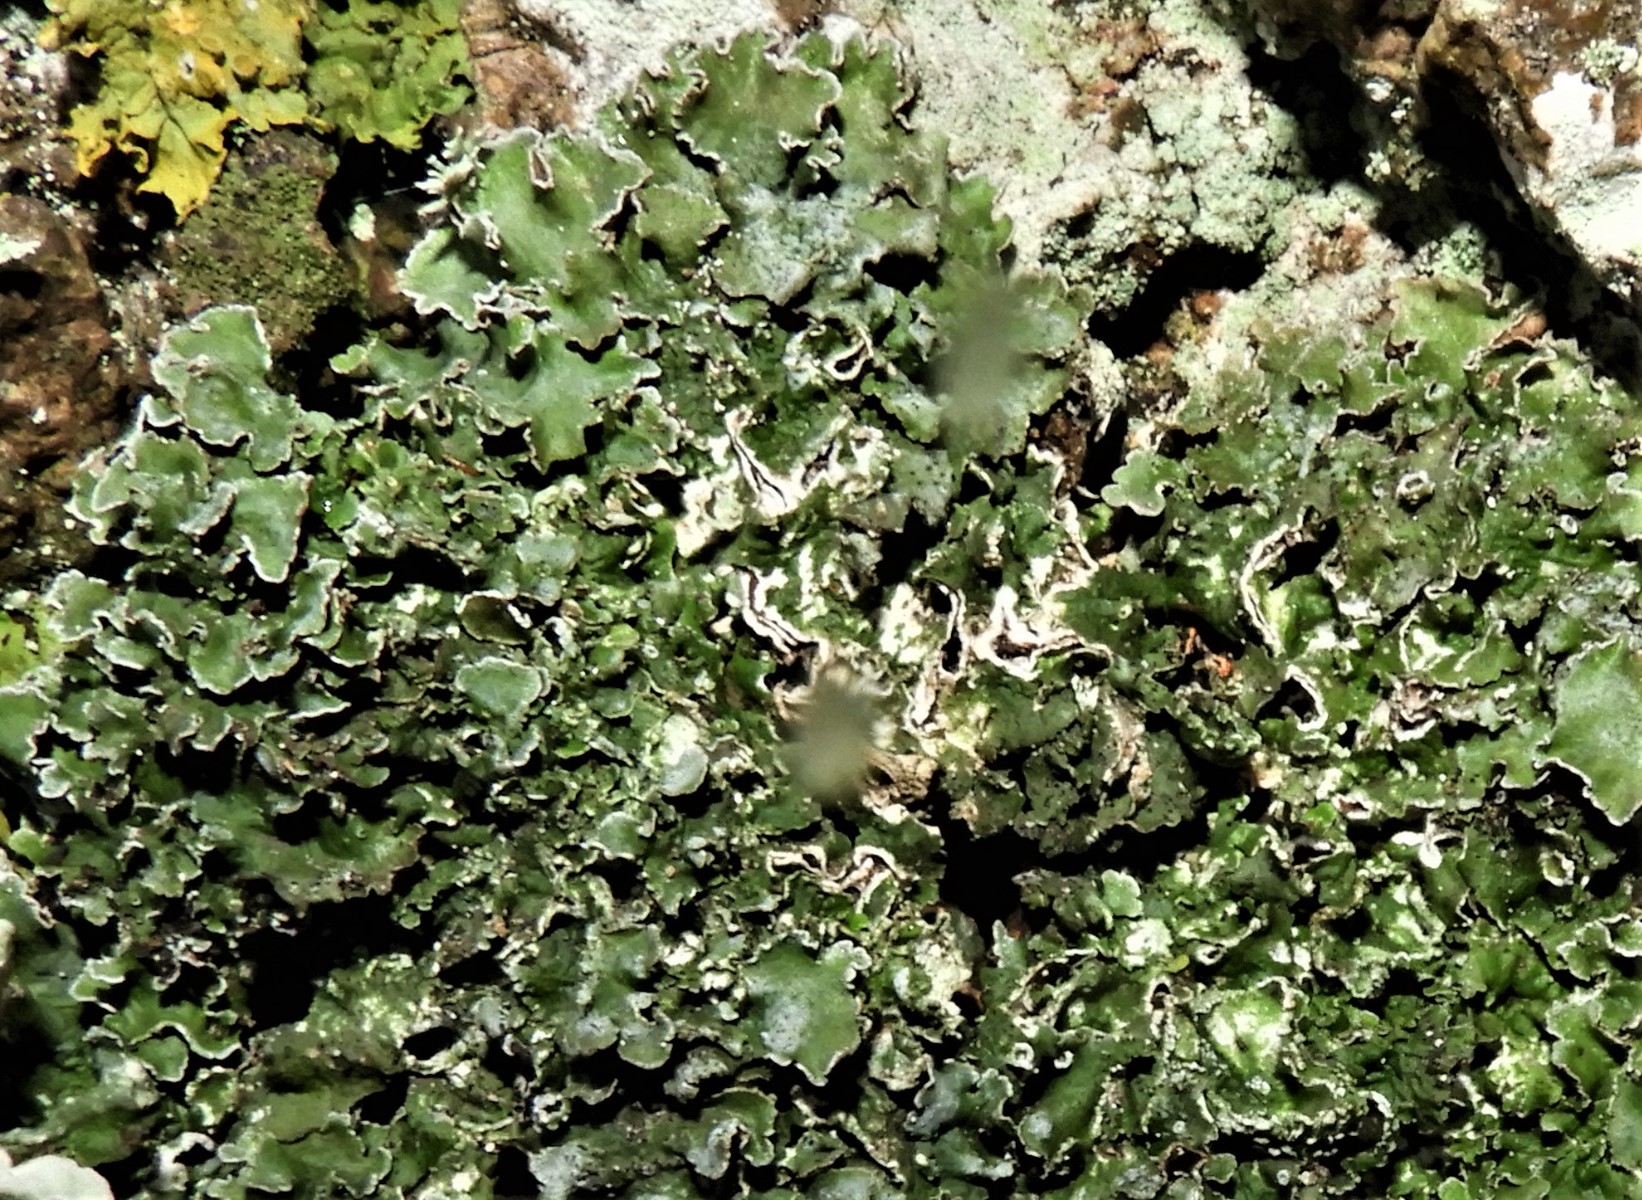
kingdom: Fungi
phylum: Ascomycota
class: Lecanoromycetes
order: Lecanorales
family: Parmeliaceae
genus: Pleurosticta
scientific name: Pleurosticta acetabulum
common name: stor skållav
